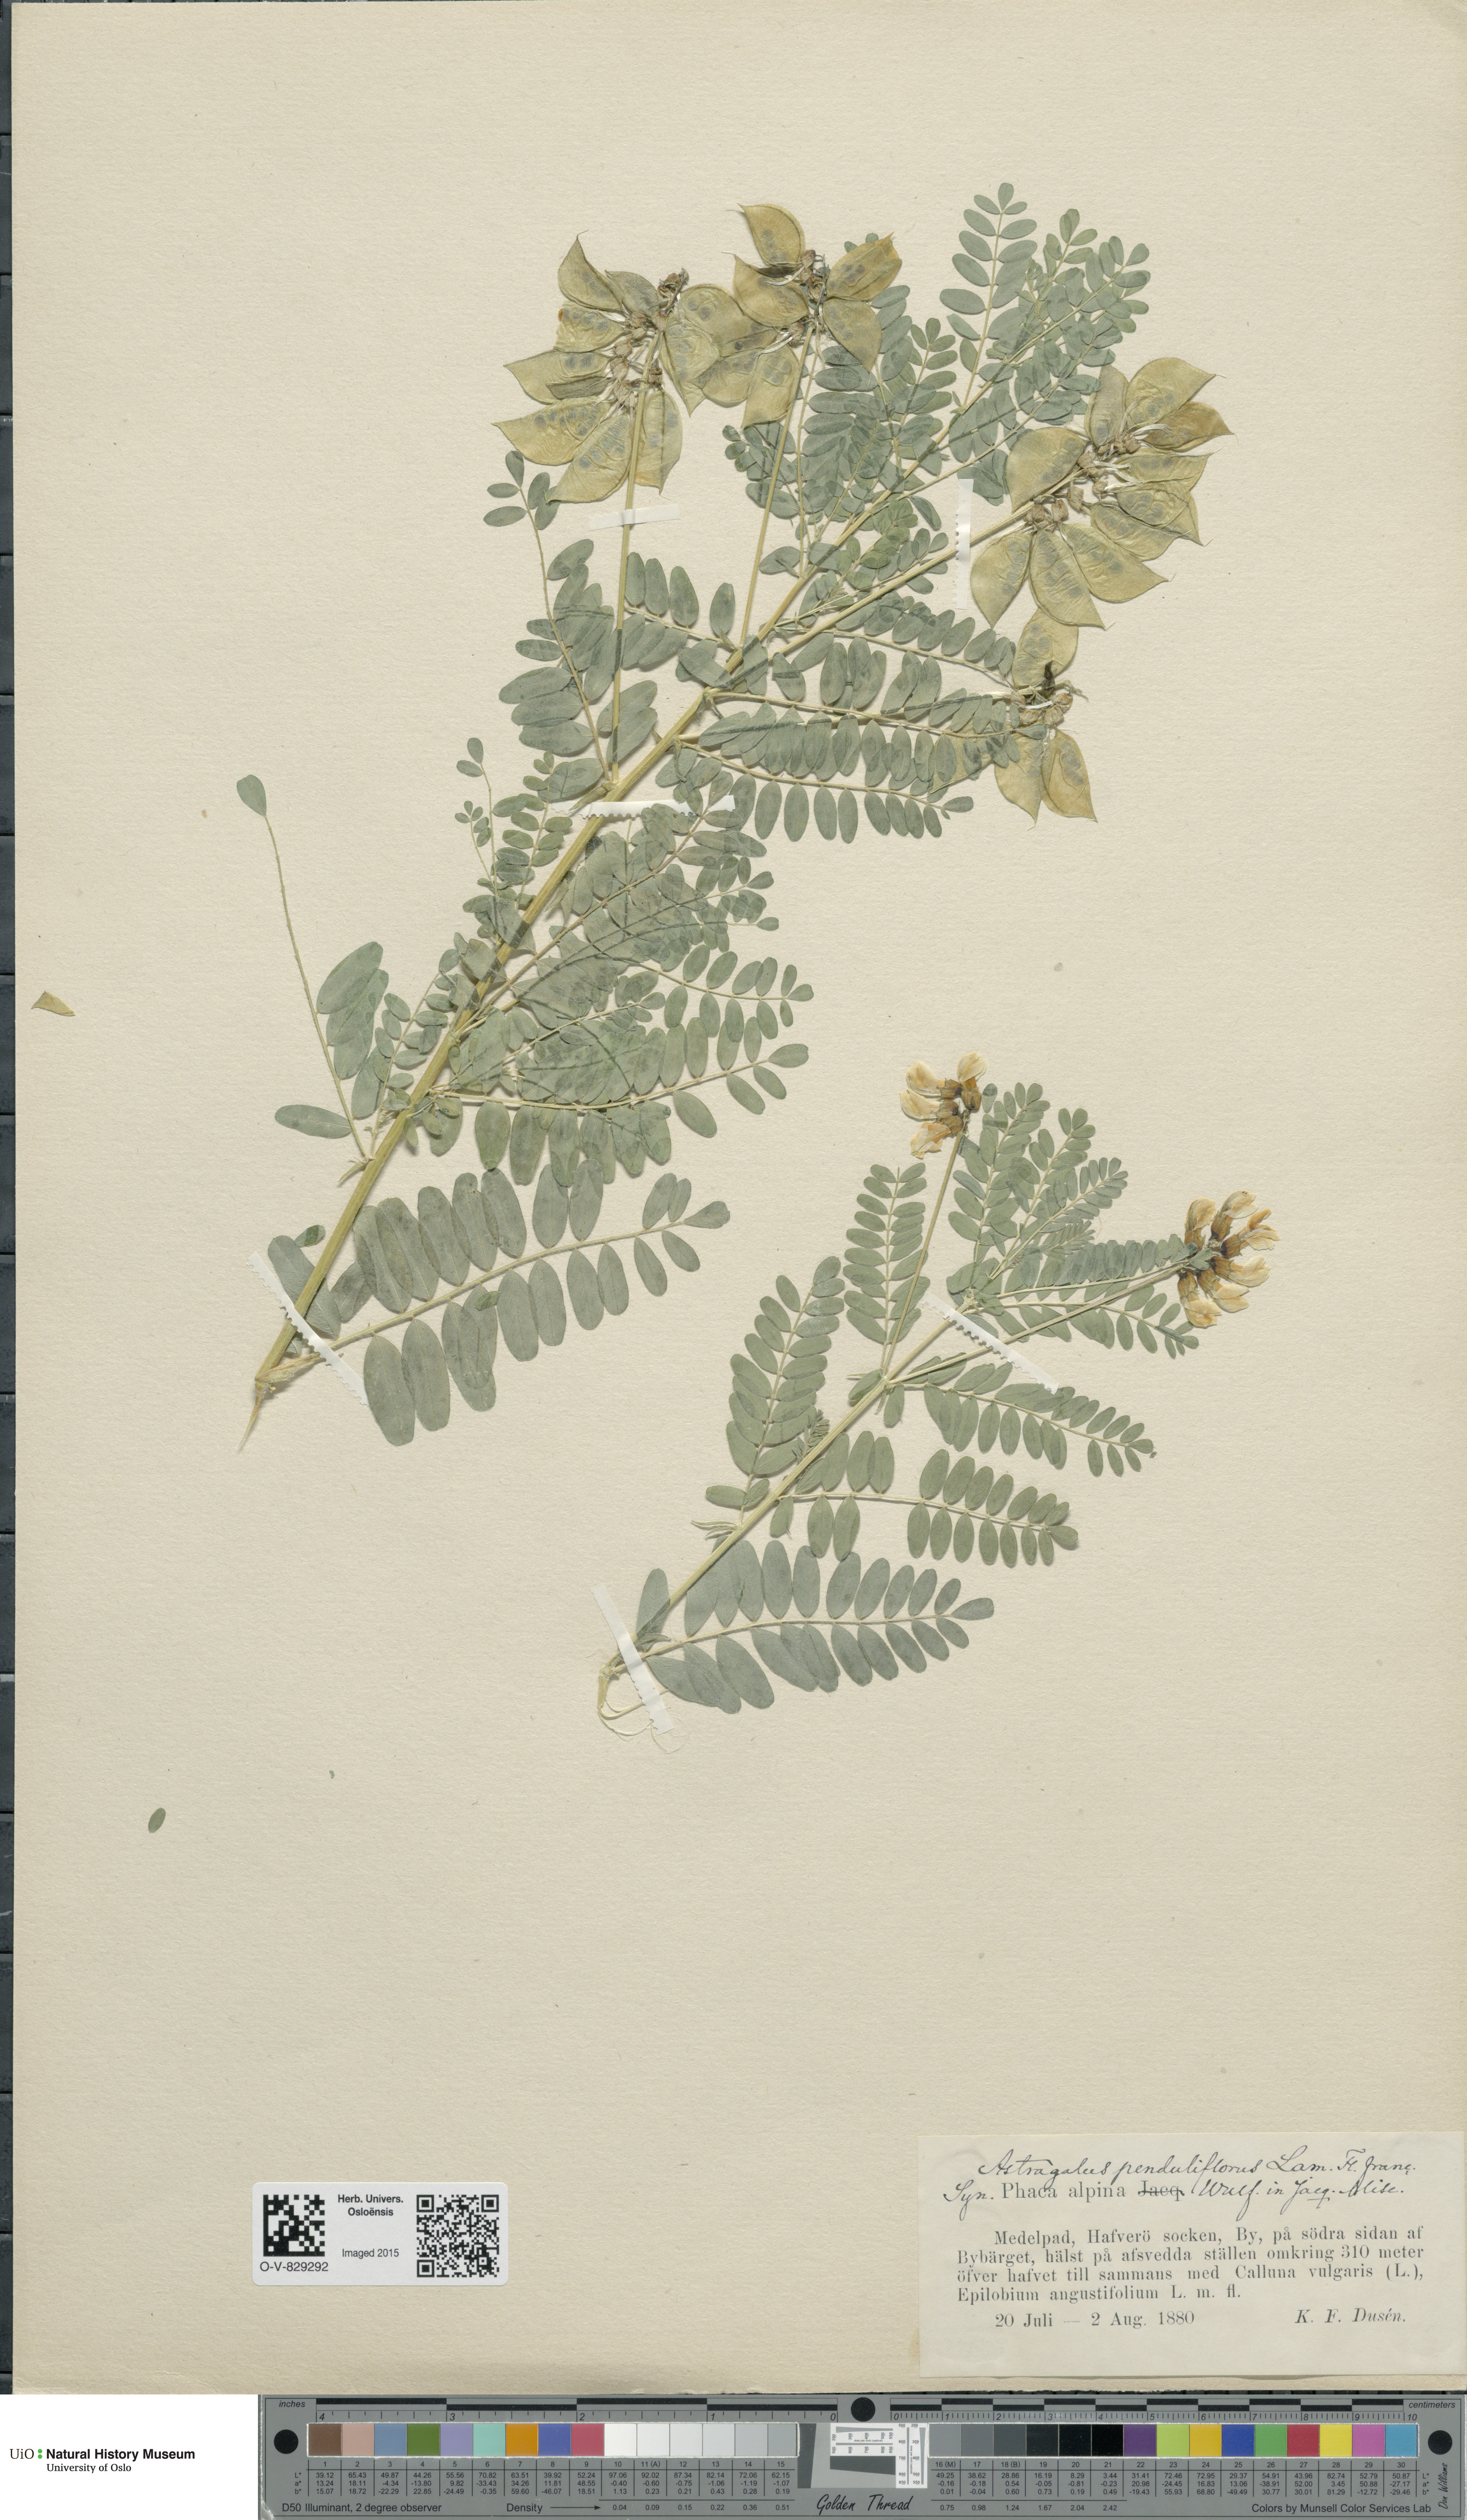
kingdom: Plantae
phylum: Tracheophyta
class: Magnoliopsida
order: Fabales
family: Fabaceae
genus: Astragalus
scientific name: Astragalus penduliflorus
